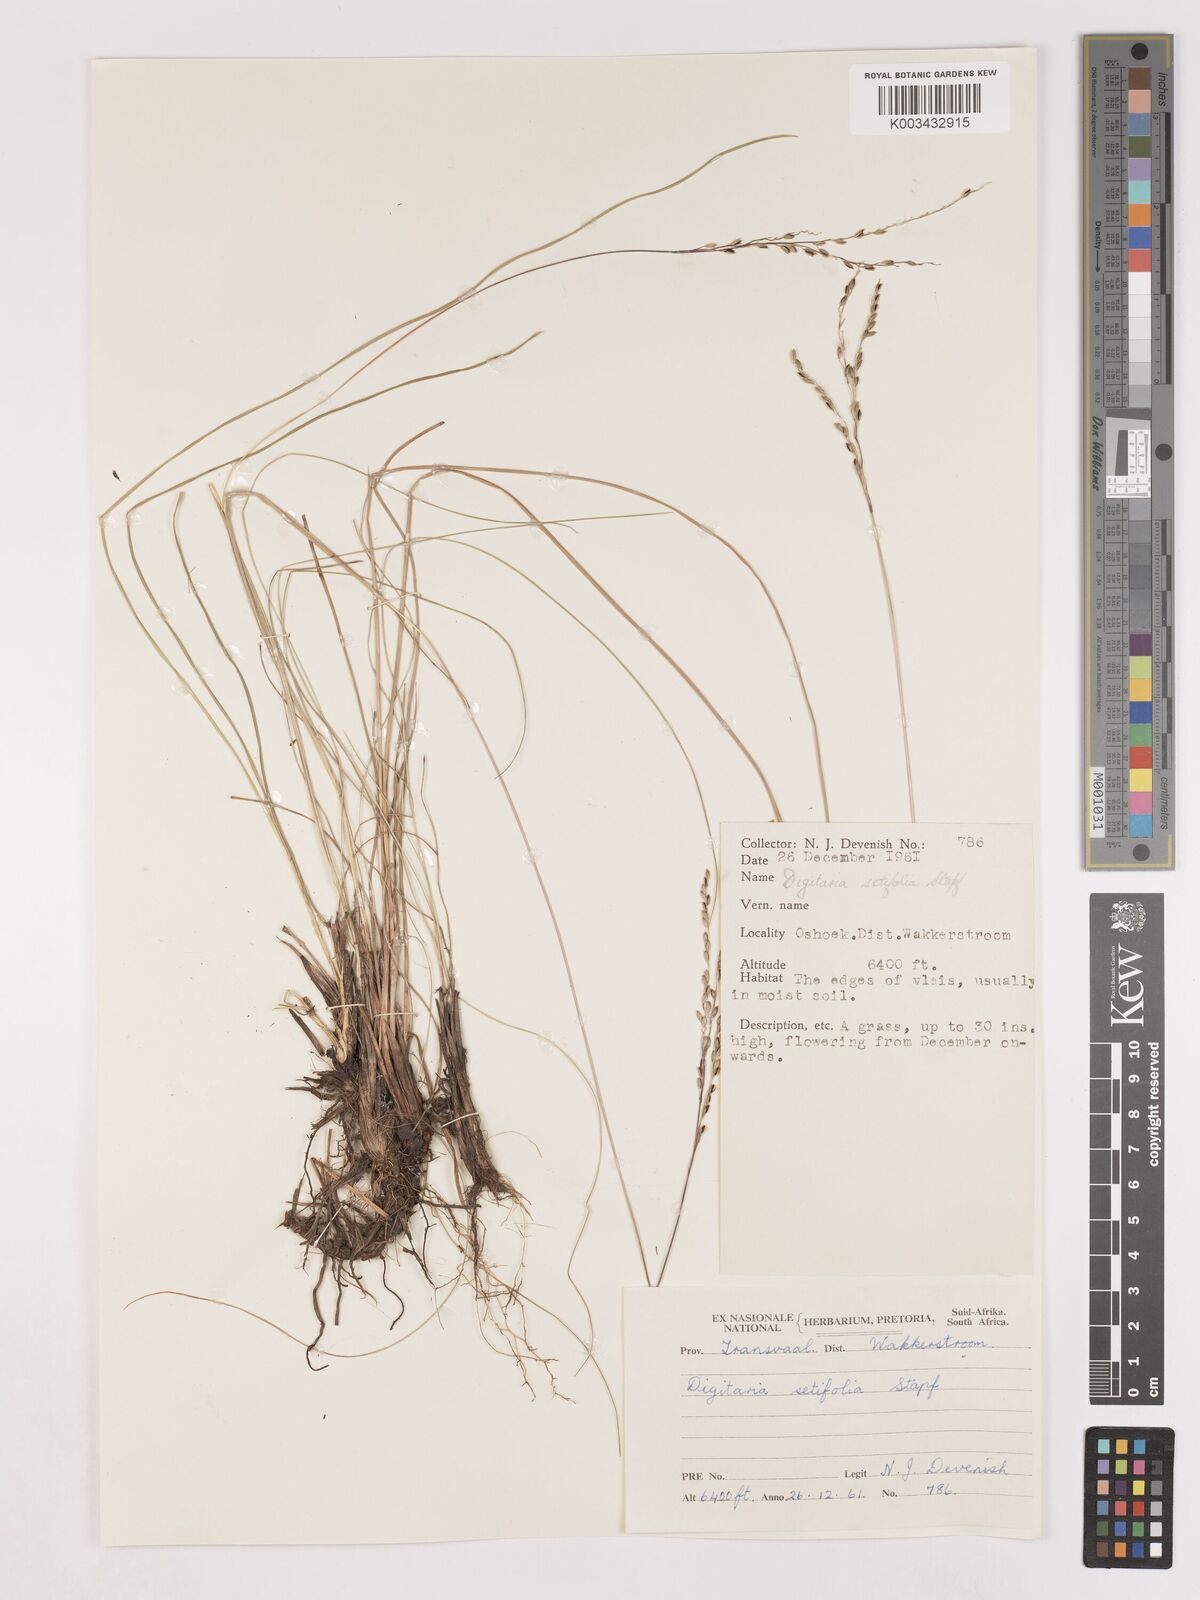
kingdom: Plantae
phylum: Tracheophyta
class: Liliopsida
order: Poales
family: Poaceae
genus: Digitaria
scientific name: Digitaria setifolia
